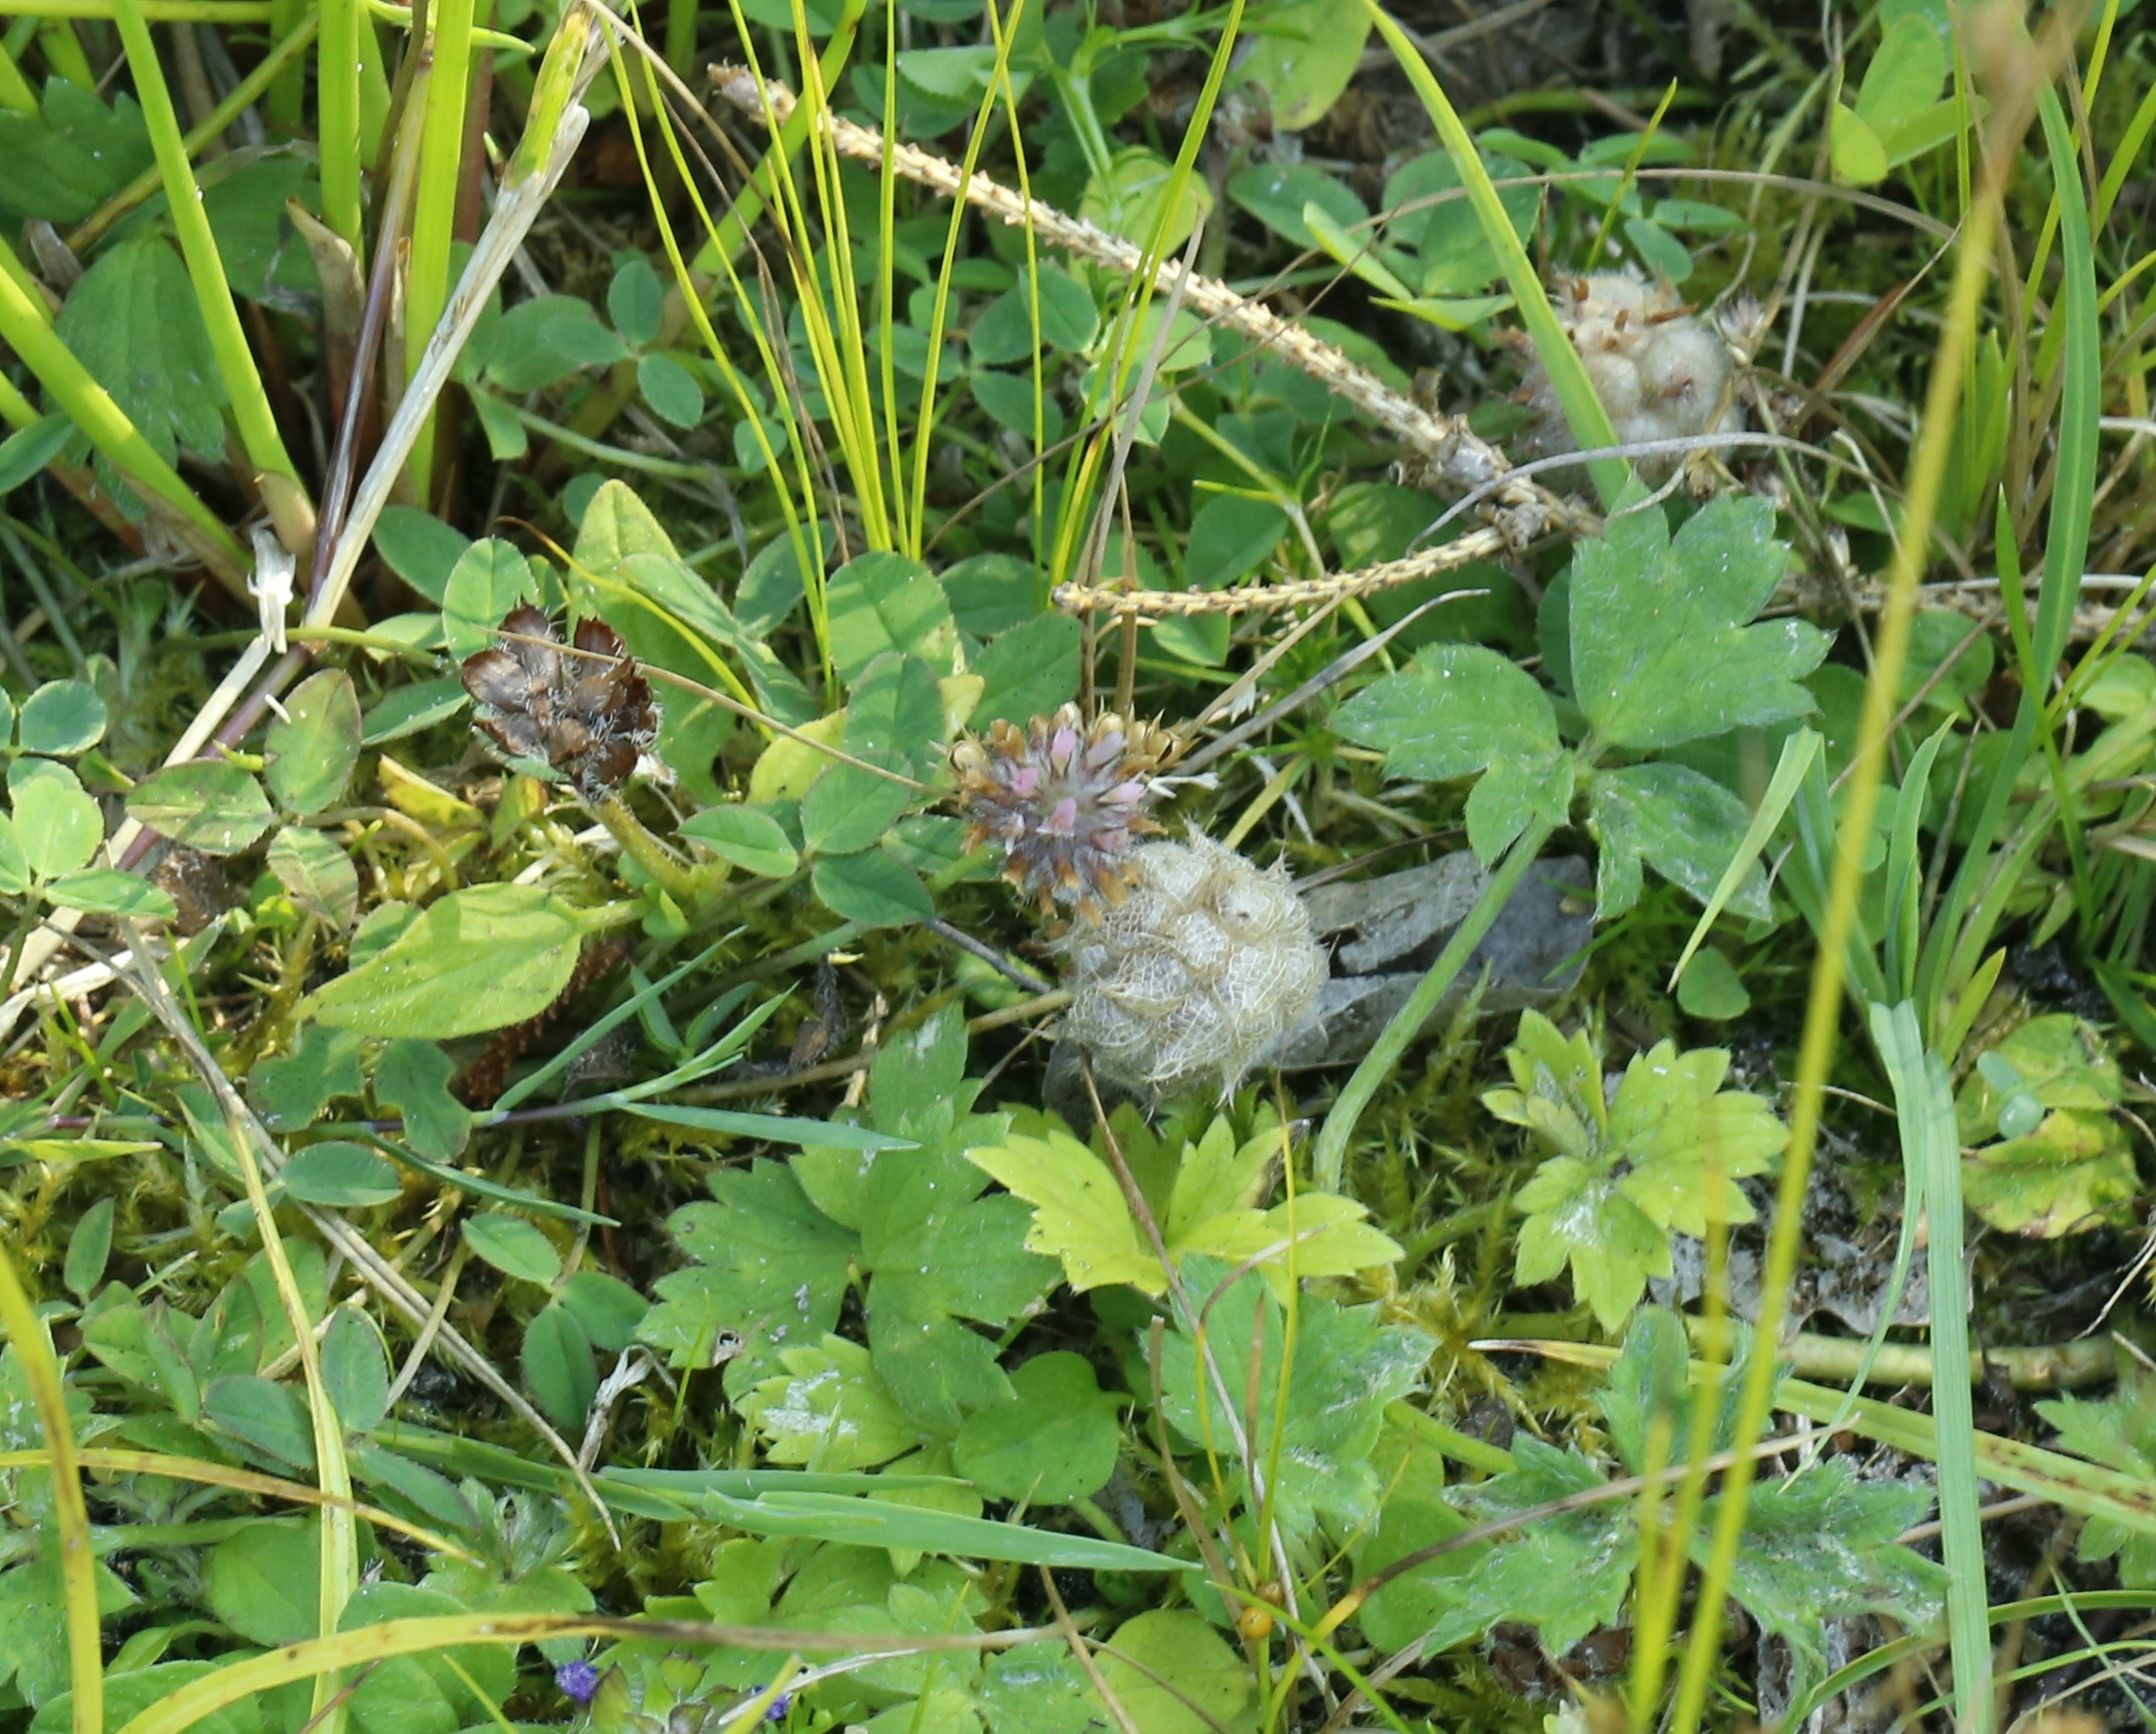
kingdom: Plantae
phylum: Tracheophyta
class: Magnoliopsida
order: Fabales
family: Fabaceae
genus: Trifolium
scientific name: Trifolium fragiferum
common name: Jordbær-kløver
